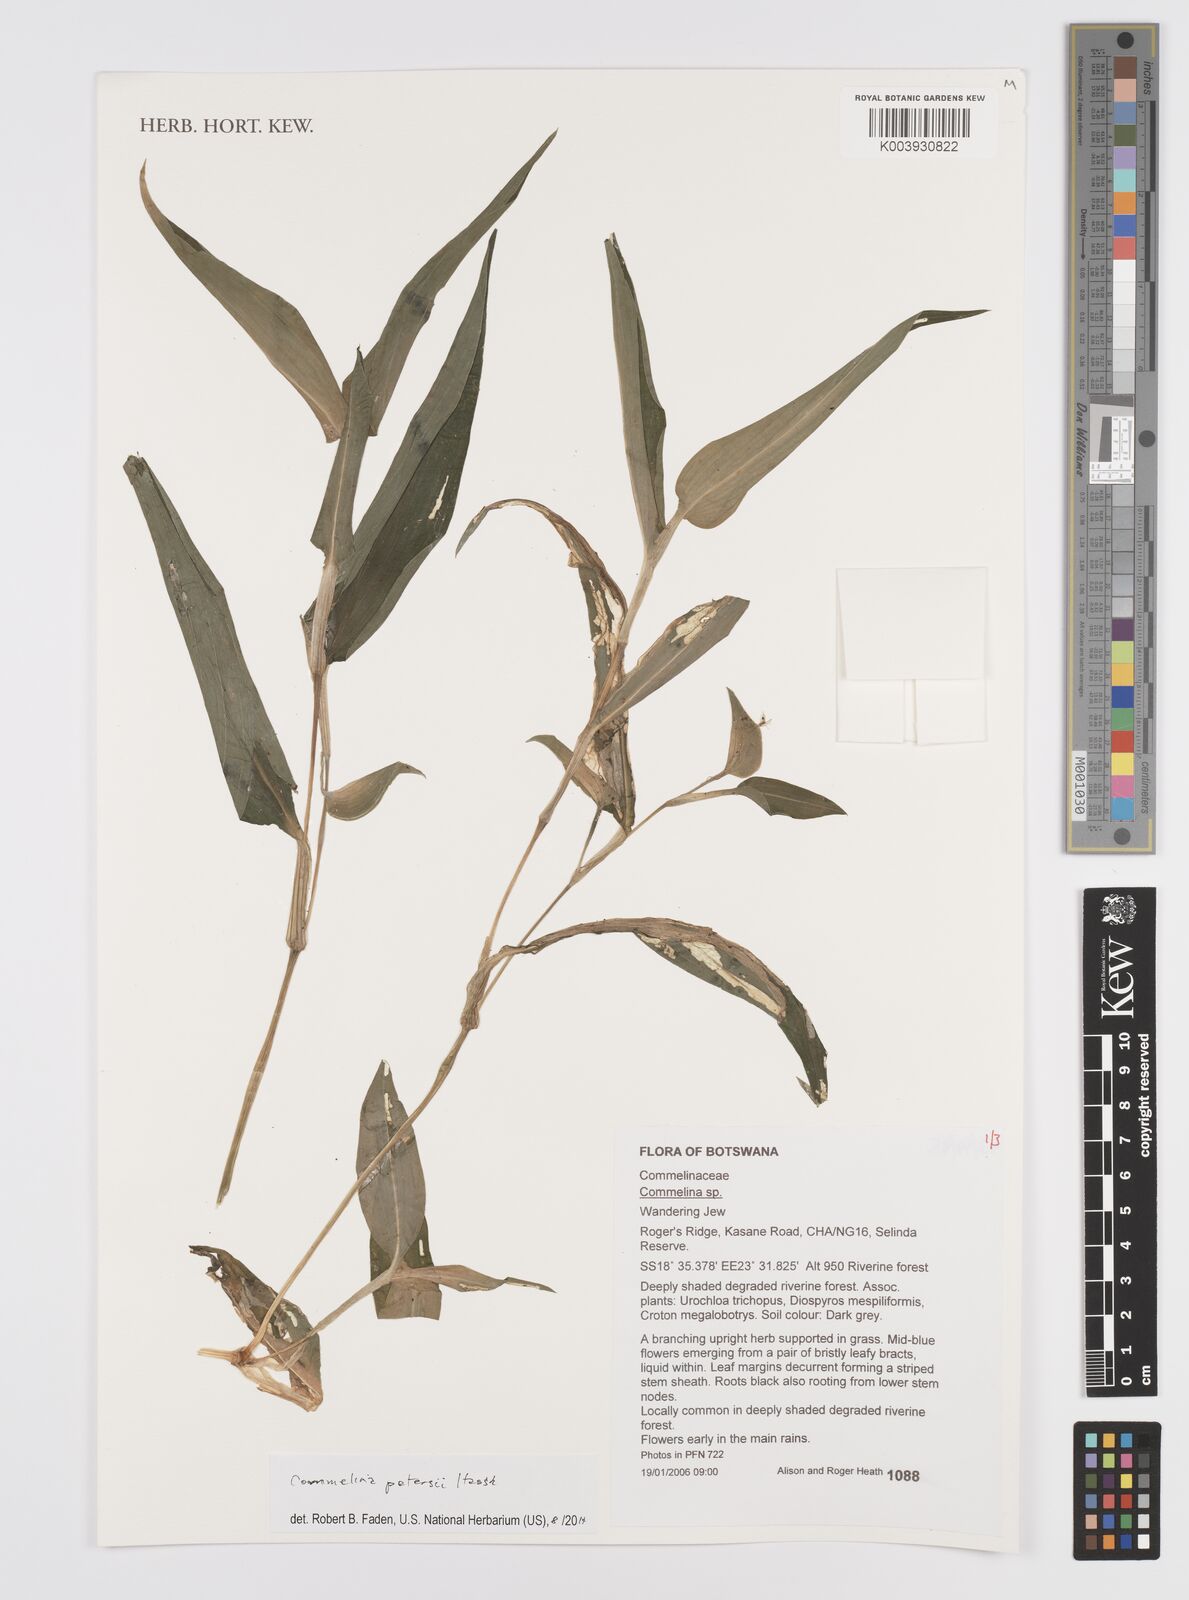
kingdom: Plantae
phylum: Tracheophyta
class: Liliopsida
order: Commelinales
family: Commelinaceae
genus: Commelina
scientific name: Commelina petersii
